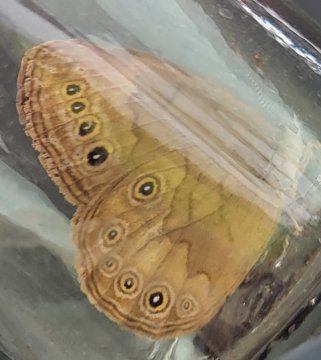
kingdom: Animalia
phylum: Arthropoda
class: Insecta
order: Lepidoptera
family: Nymphalidae
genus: Lethe
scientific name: Lethe eurydice
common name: Eyed Brown
